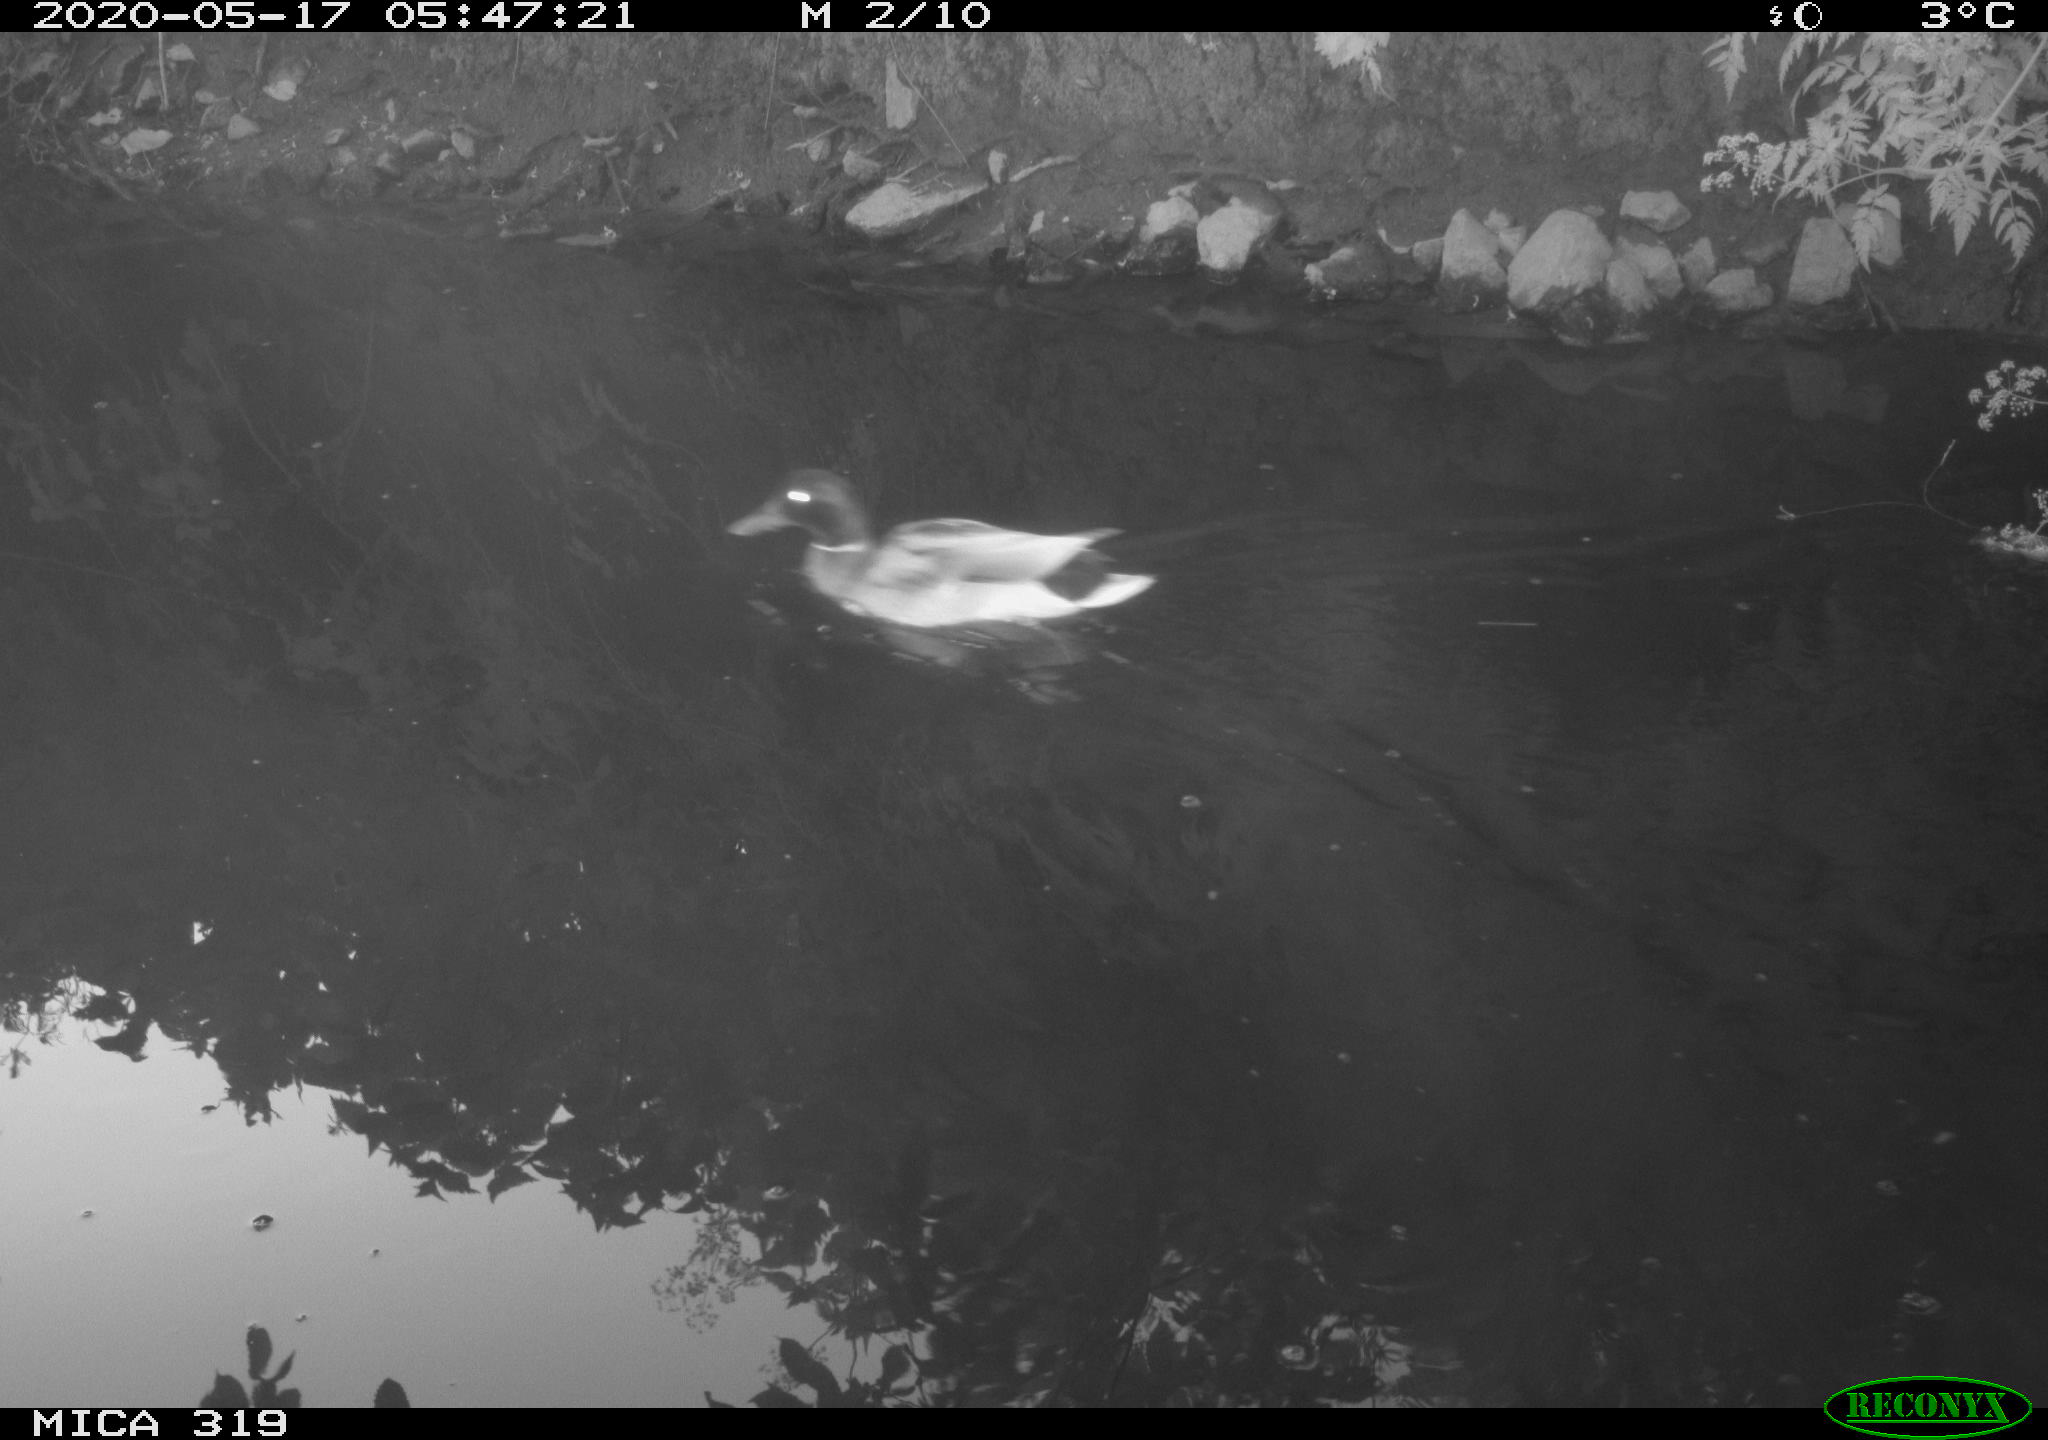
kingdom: Animalia
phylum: Chordata
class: Aves
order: Anseriformes
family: Anatidae
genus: Anas
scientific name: Anas platyrhynchos
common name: Mallard
